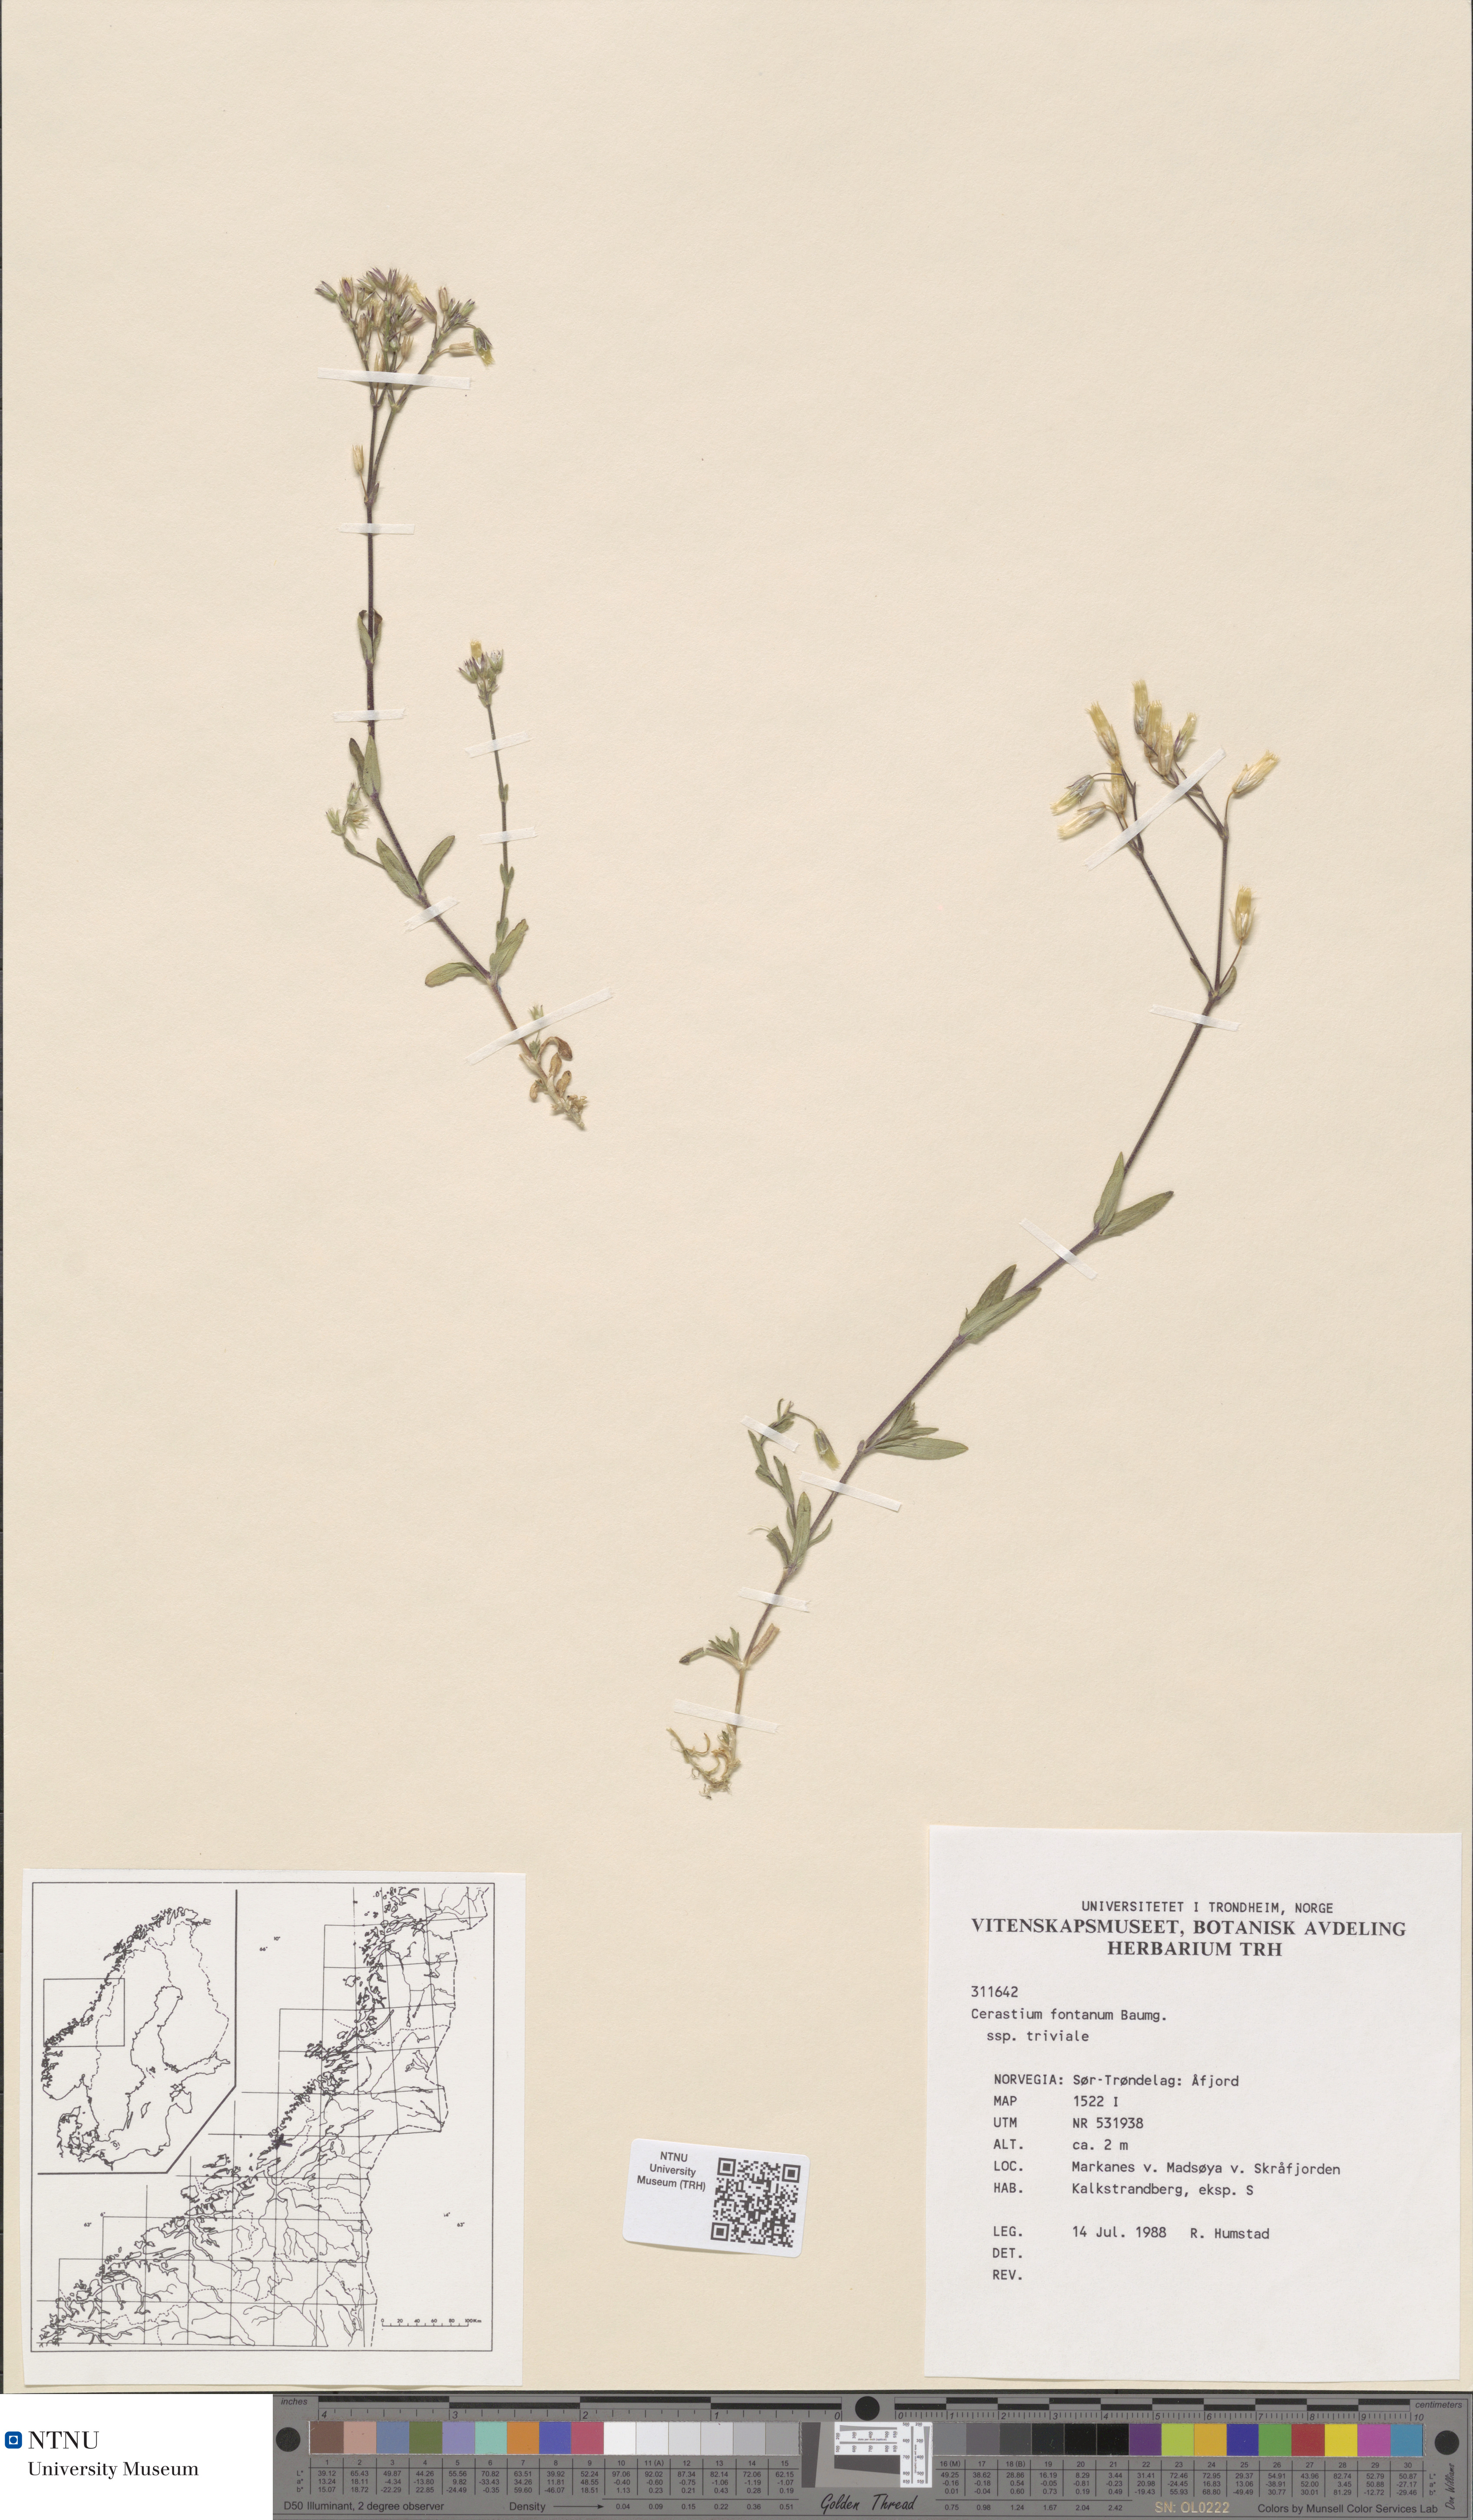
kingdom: Plantae
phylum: Tracheophyta
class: Magnoliopsida
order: Caryophyllales
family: Caryophyllaceae
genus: Cerastium
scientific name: Cerastium fontanum
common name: Common mouse-ear
